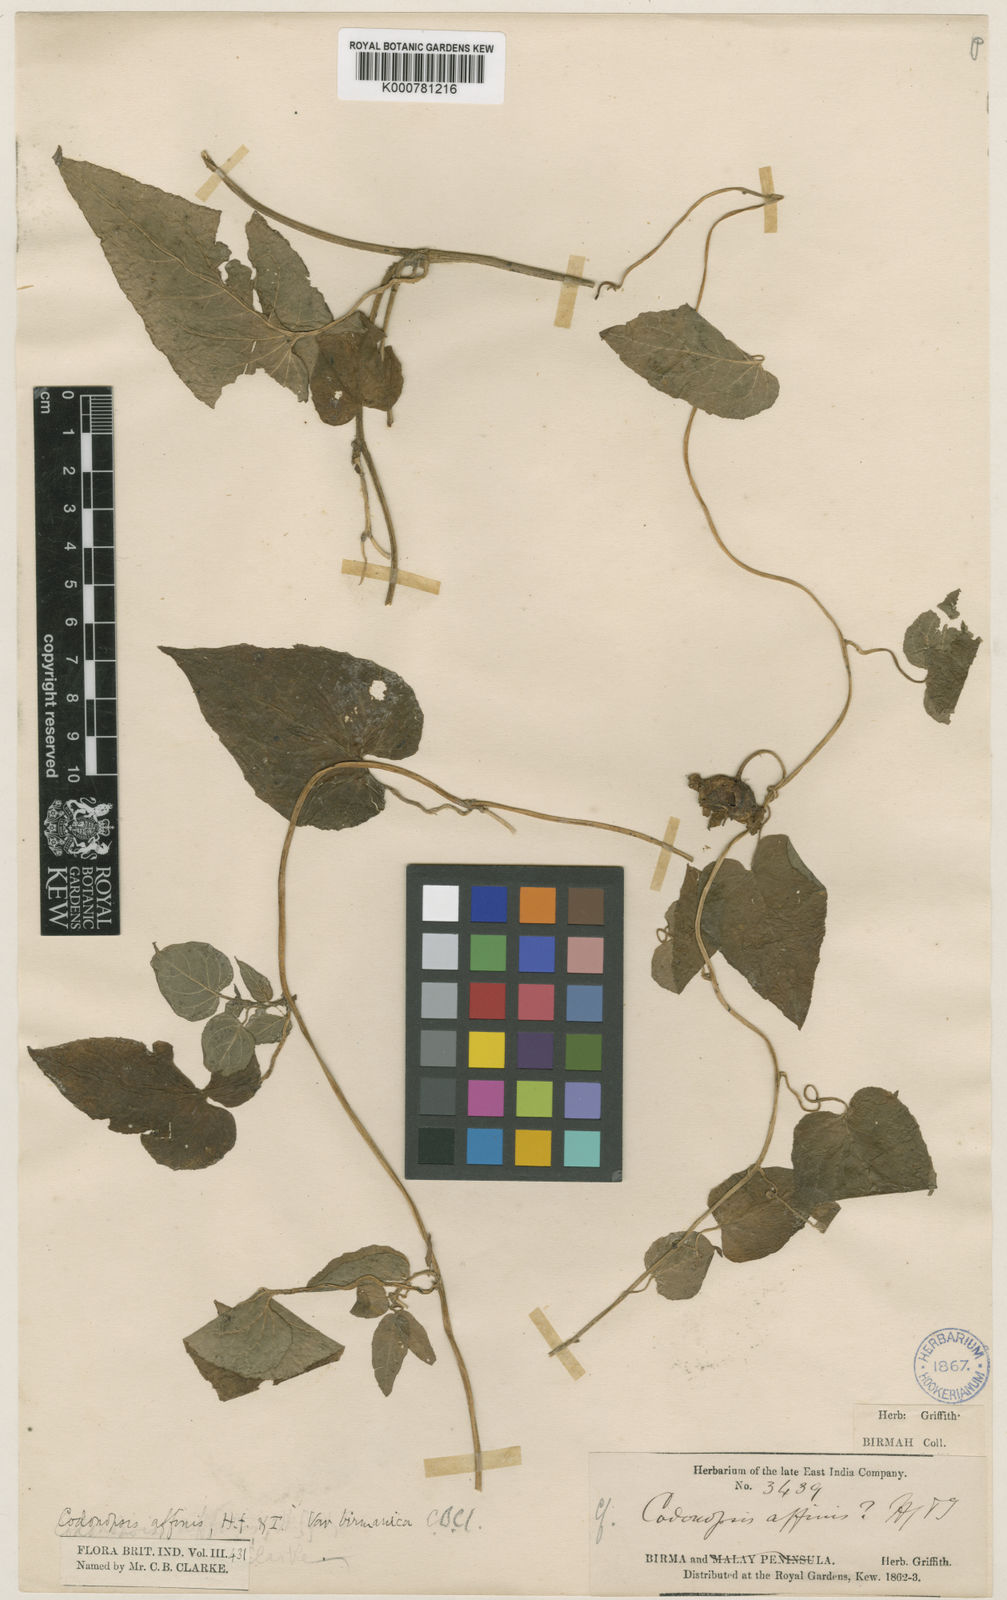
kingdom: Plantae
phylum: Tracheophyta
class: Magnoliopsida
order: Asterales
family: Campanulaceae
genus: Codonopsis
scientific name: Codonopsis affinis
